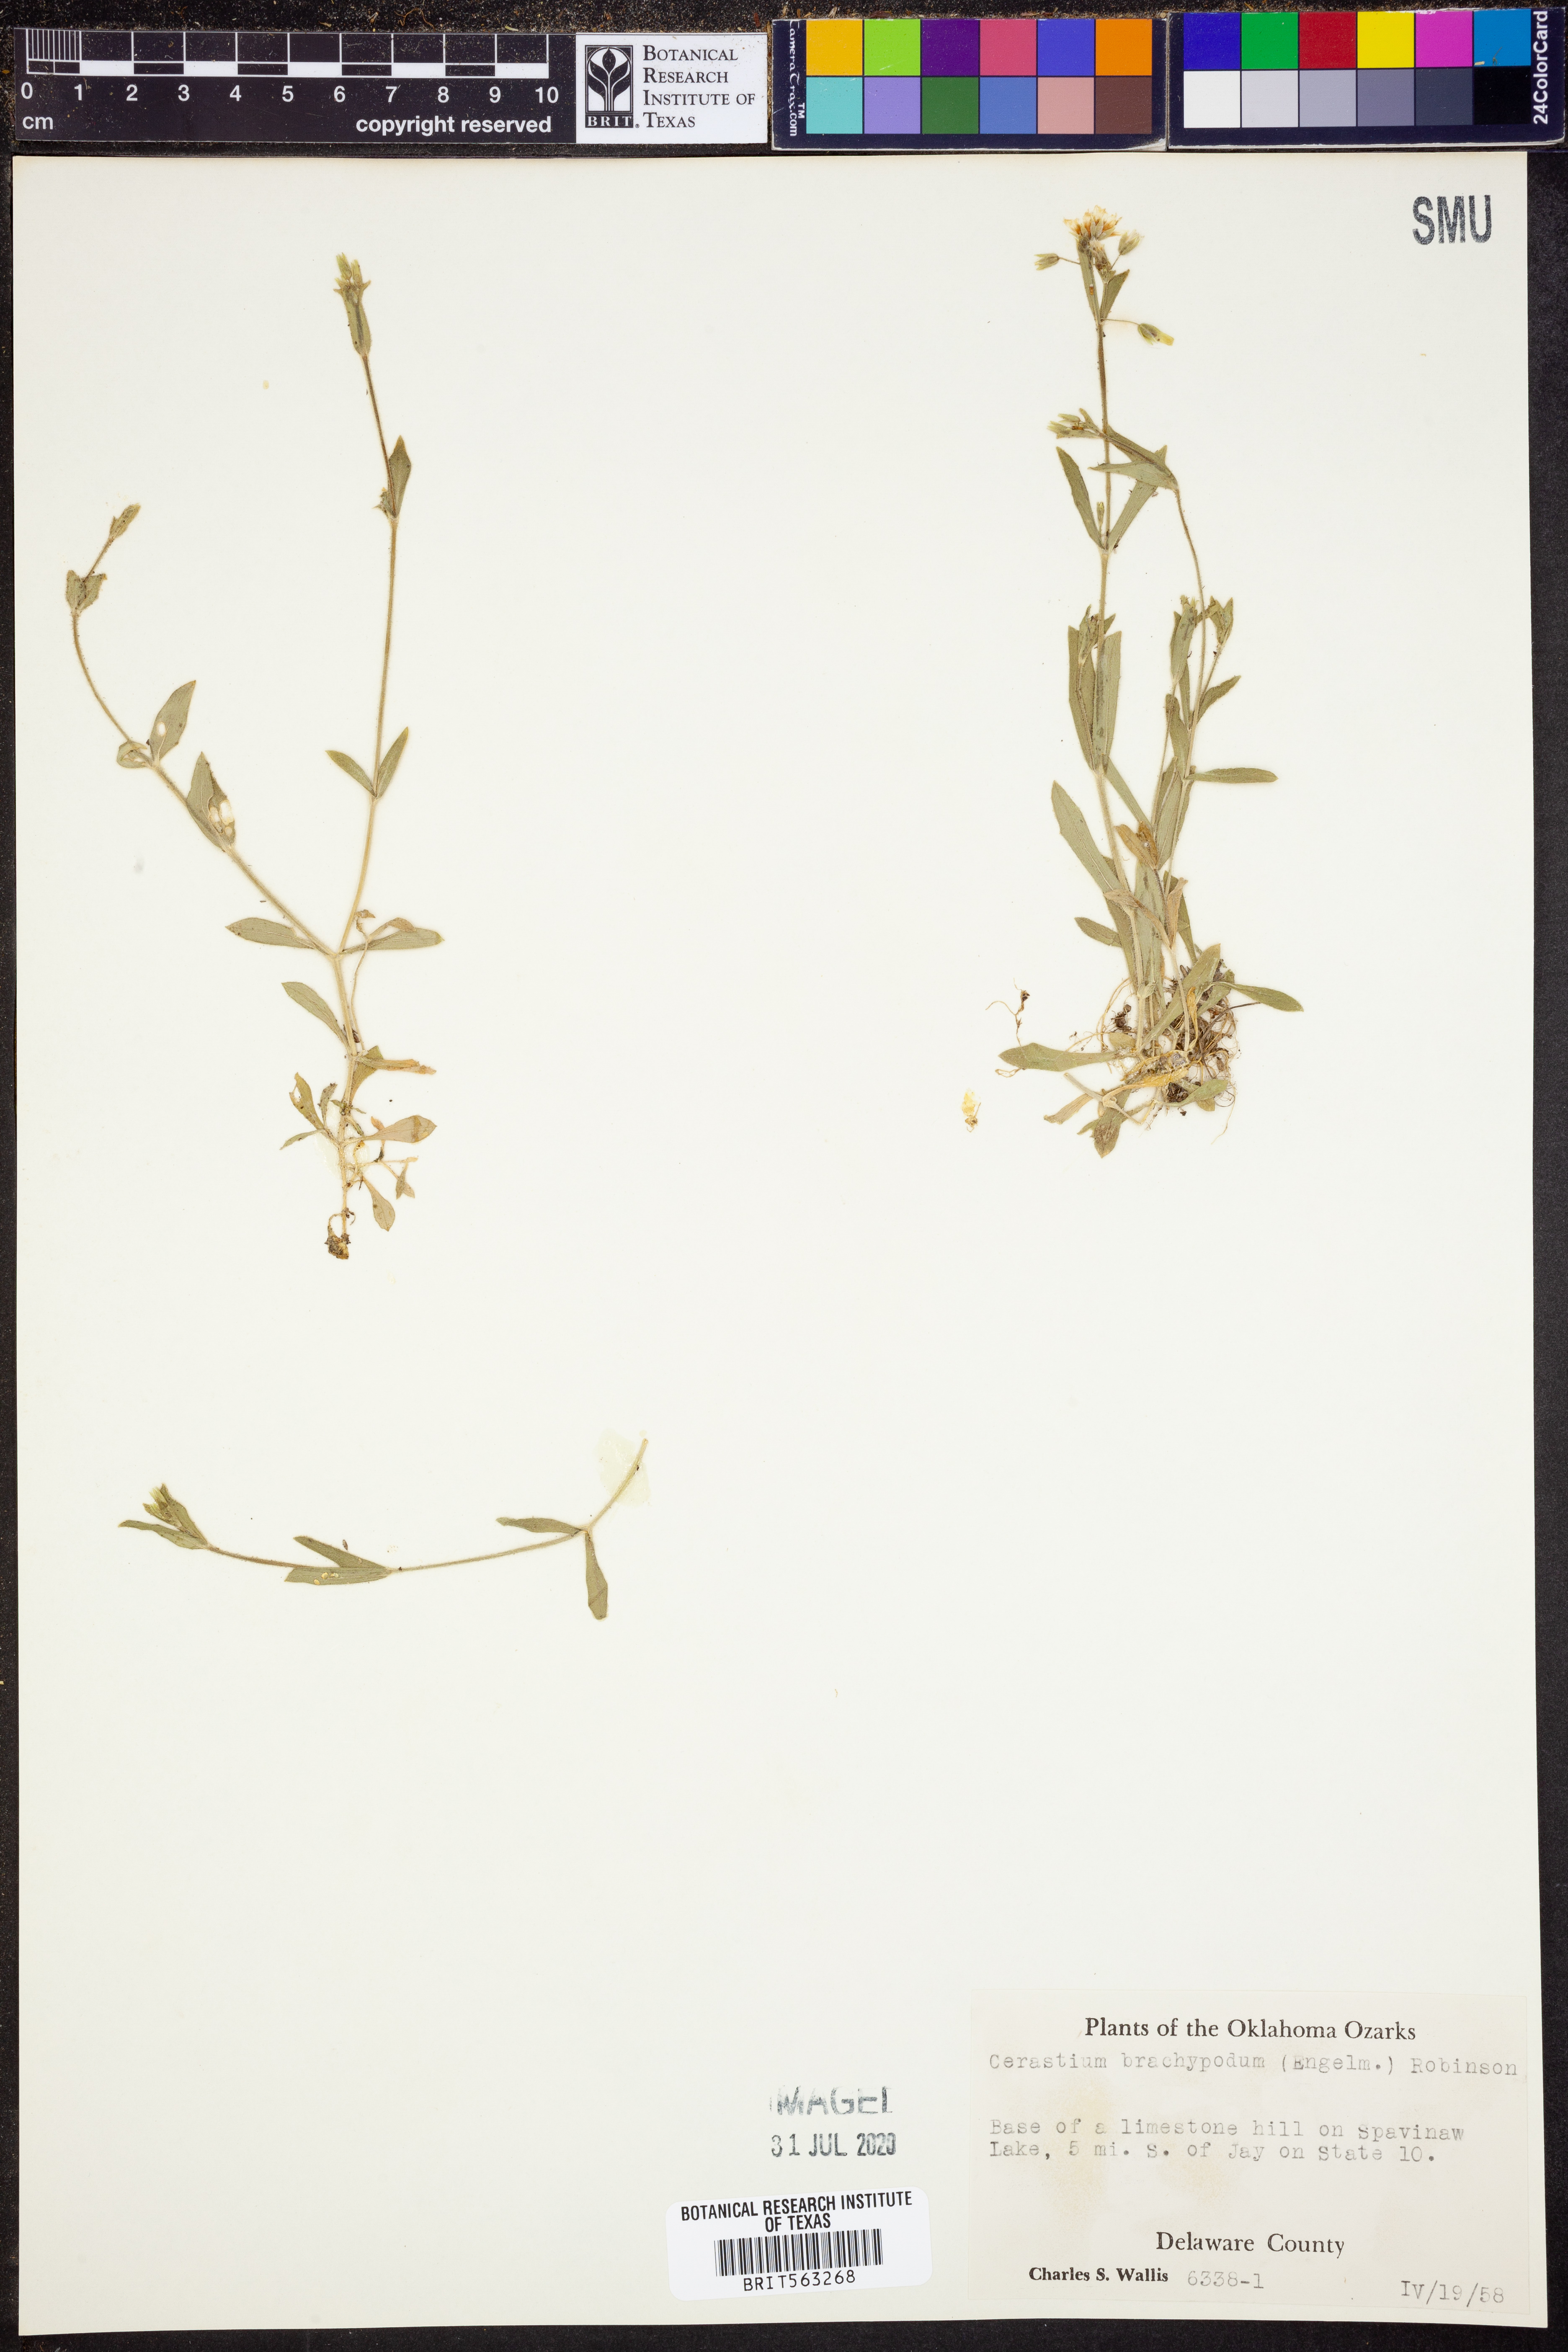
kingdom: Plantae
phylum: Tracheophyta
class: Magnoliopsida
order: Caryophyllales
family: Caryophyllaceae
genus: Cerastium
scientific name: Cerastium brachypodum
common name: Short-pedicelled nodding chickweed
